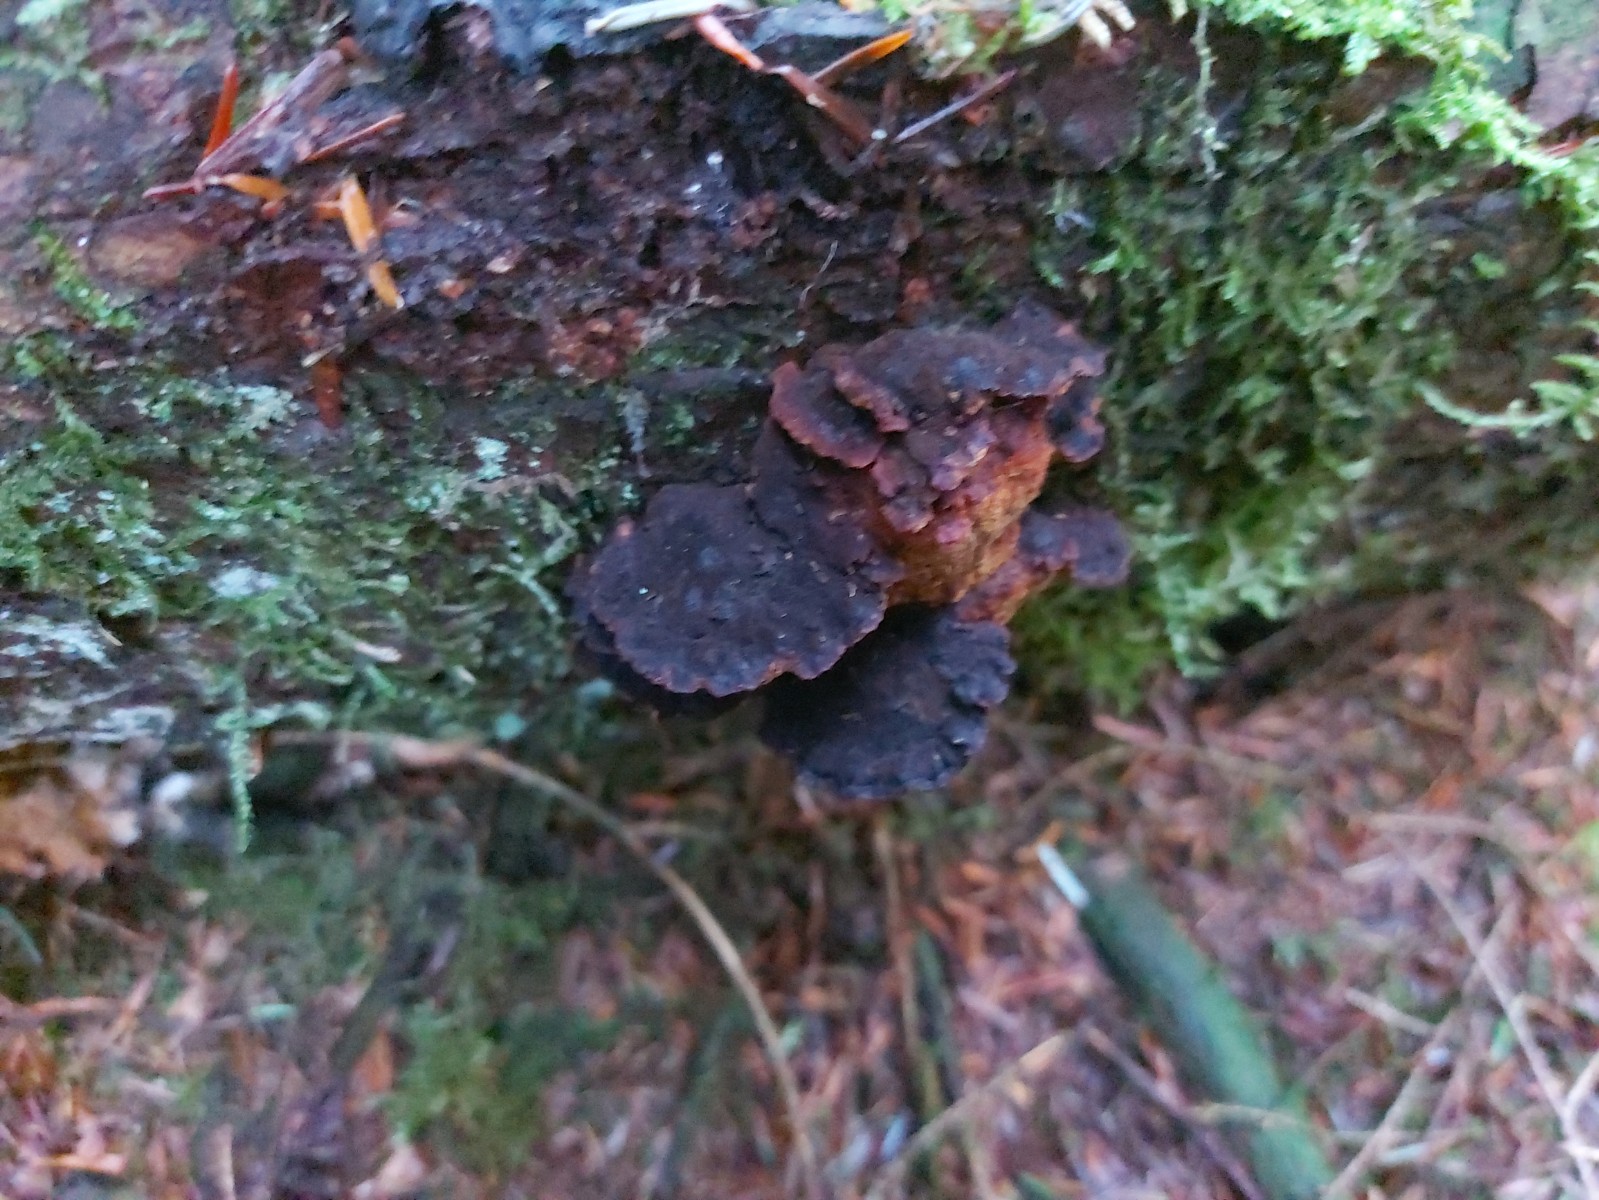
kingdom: Fungi
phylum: Basidiomycota
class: Agaricomycetes
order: Gloeophyllales
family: Gloeophyllaceae
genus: Gloeophyllum
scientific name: Gloeophyllum odoratum
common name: duftende korkhat
